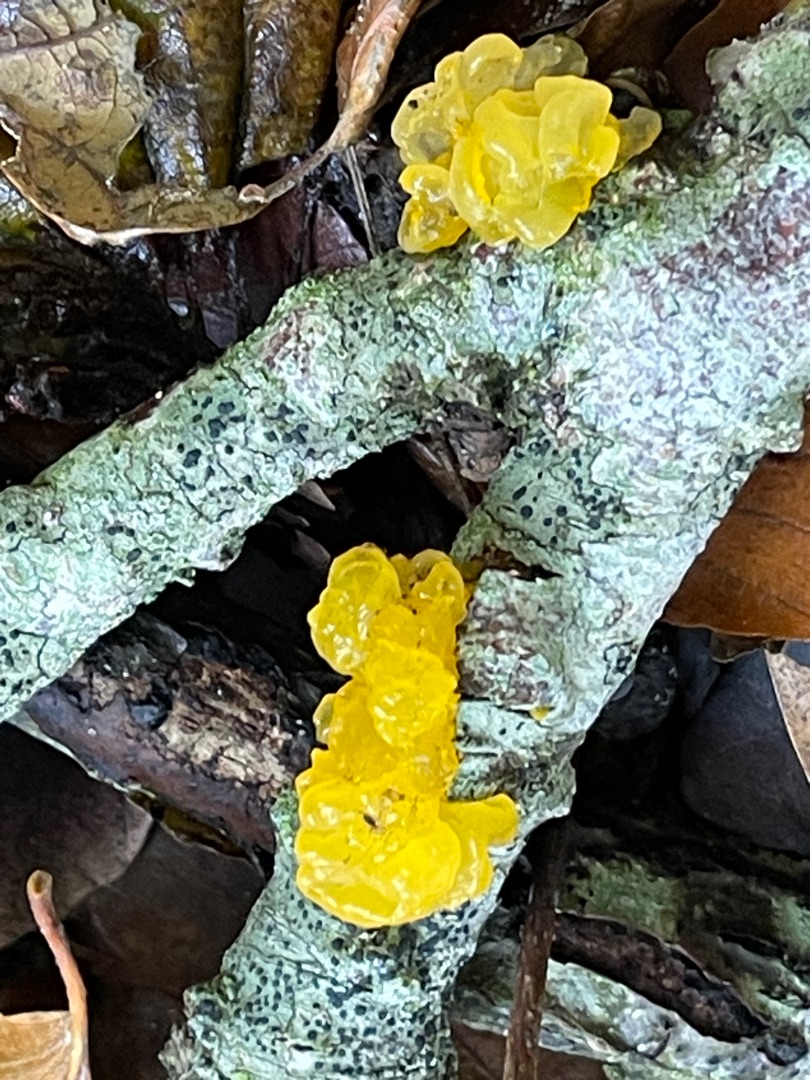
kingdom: Fungi
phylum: Basidiomycota
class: Tremellomycetes
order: Tremellales
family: Tremellaceae
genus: Tremella
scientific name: Tremella mesenterica
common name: Gul bævresvamp
